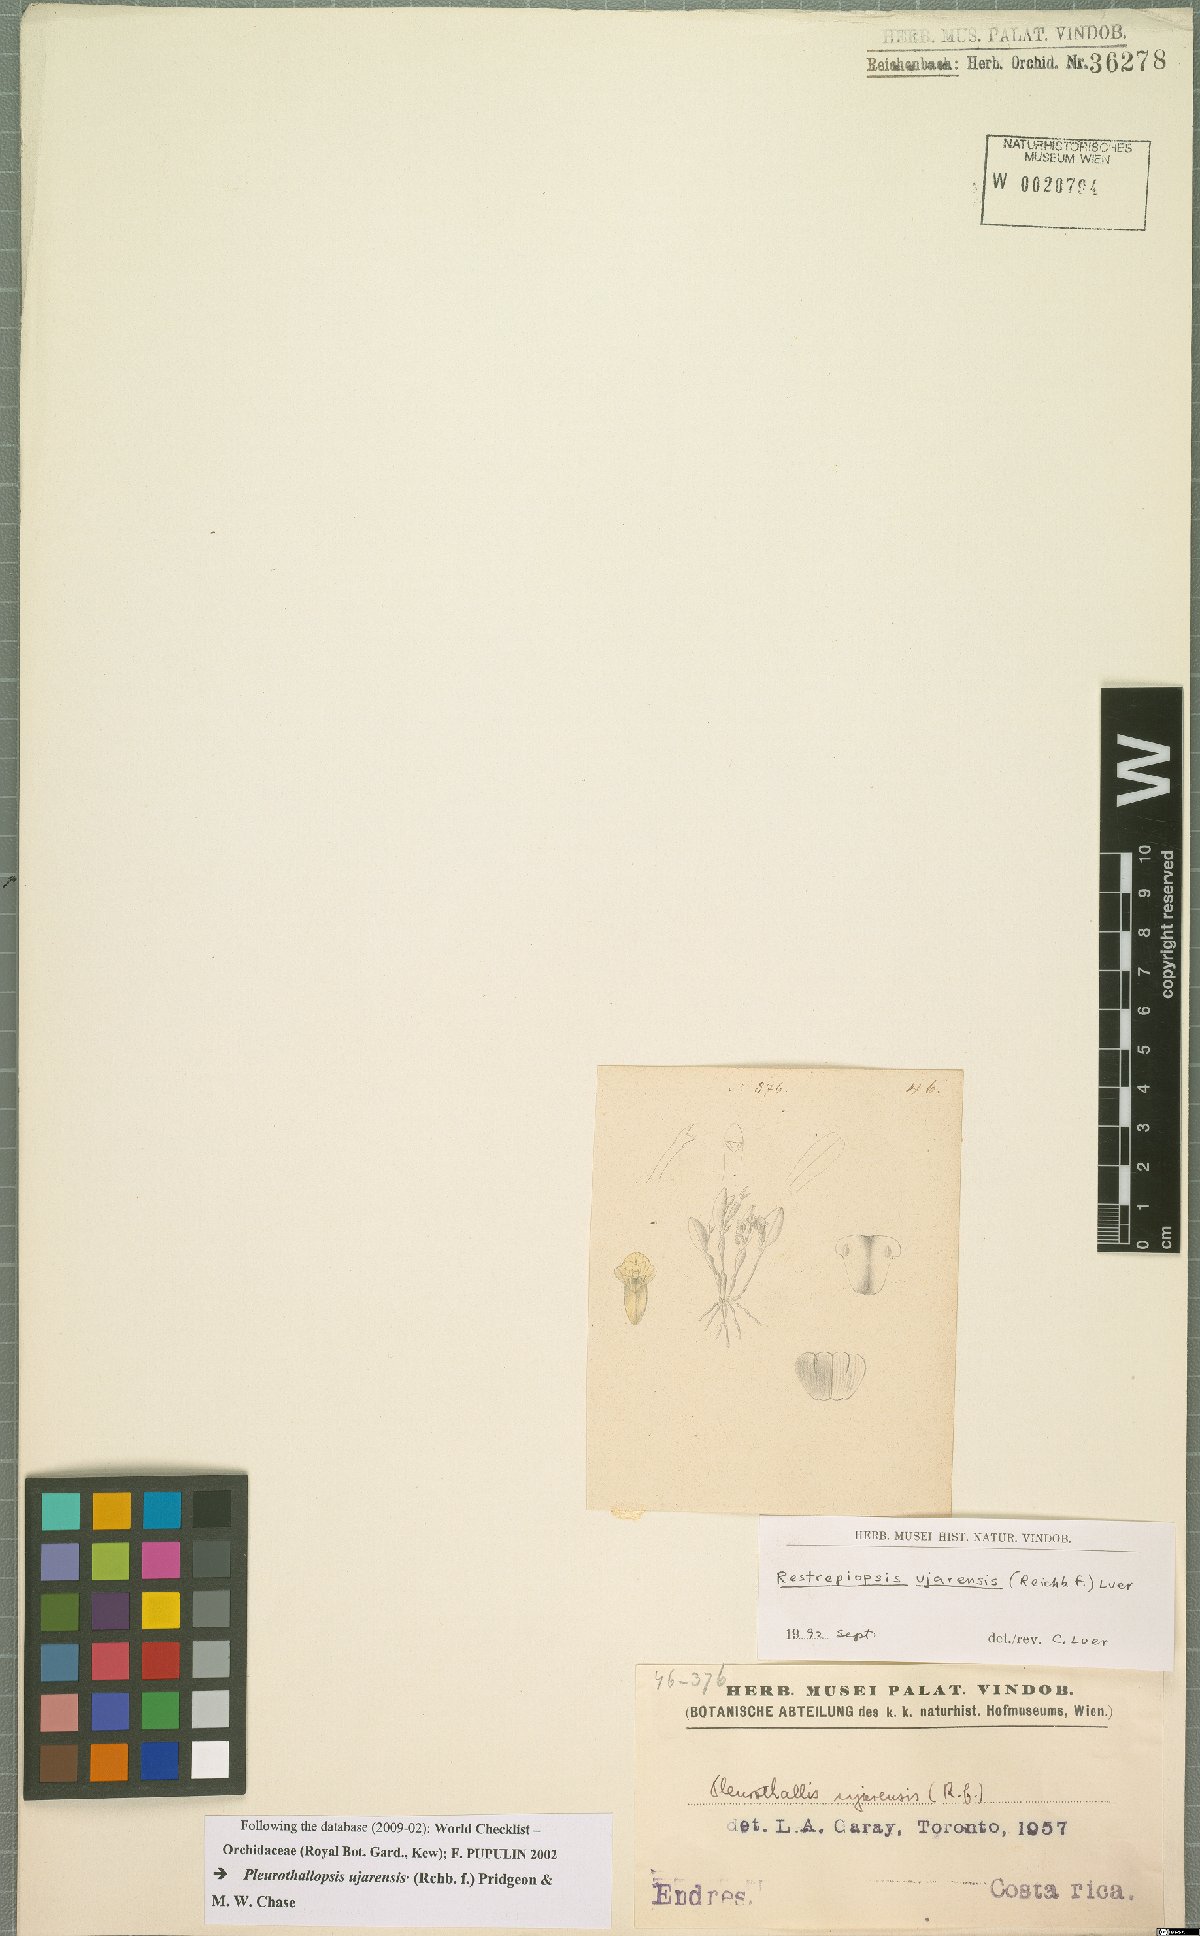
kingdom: Plantae
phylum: Tracheophyta
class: Liliopsida
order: Asparagales
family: Orchidaceae
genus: Pleurothallopsis
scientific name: Pleurothallopsis ujarensis
